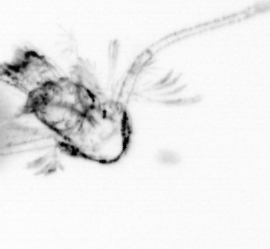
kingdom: Animalia
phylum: Arthropoda
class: Copepoda
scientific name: Copepoda
